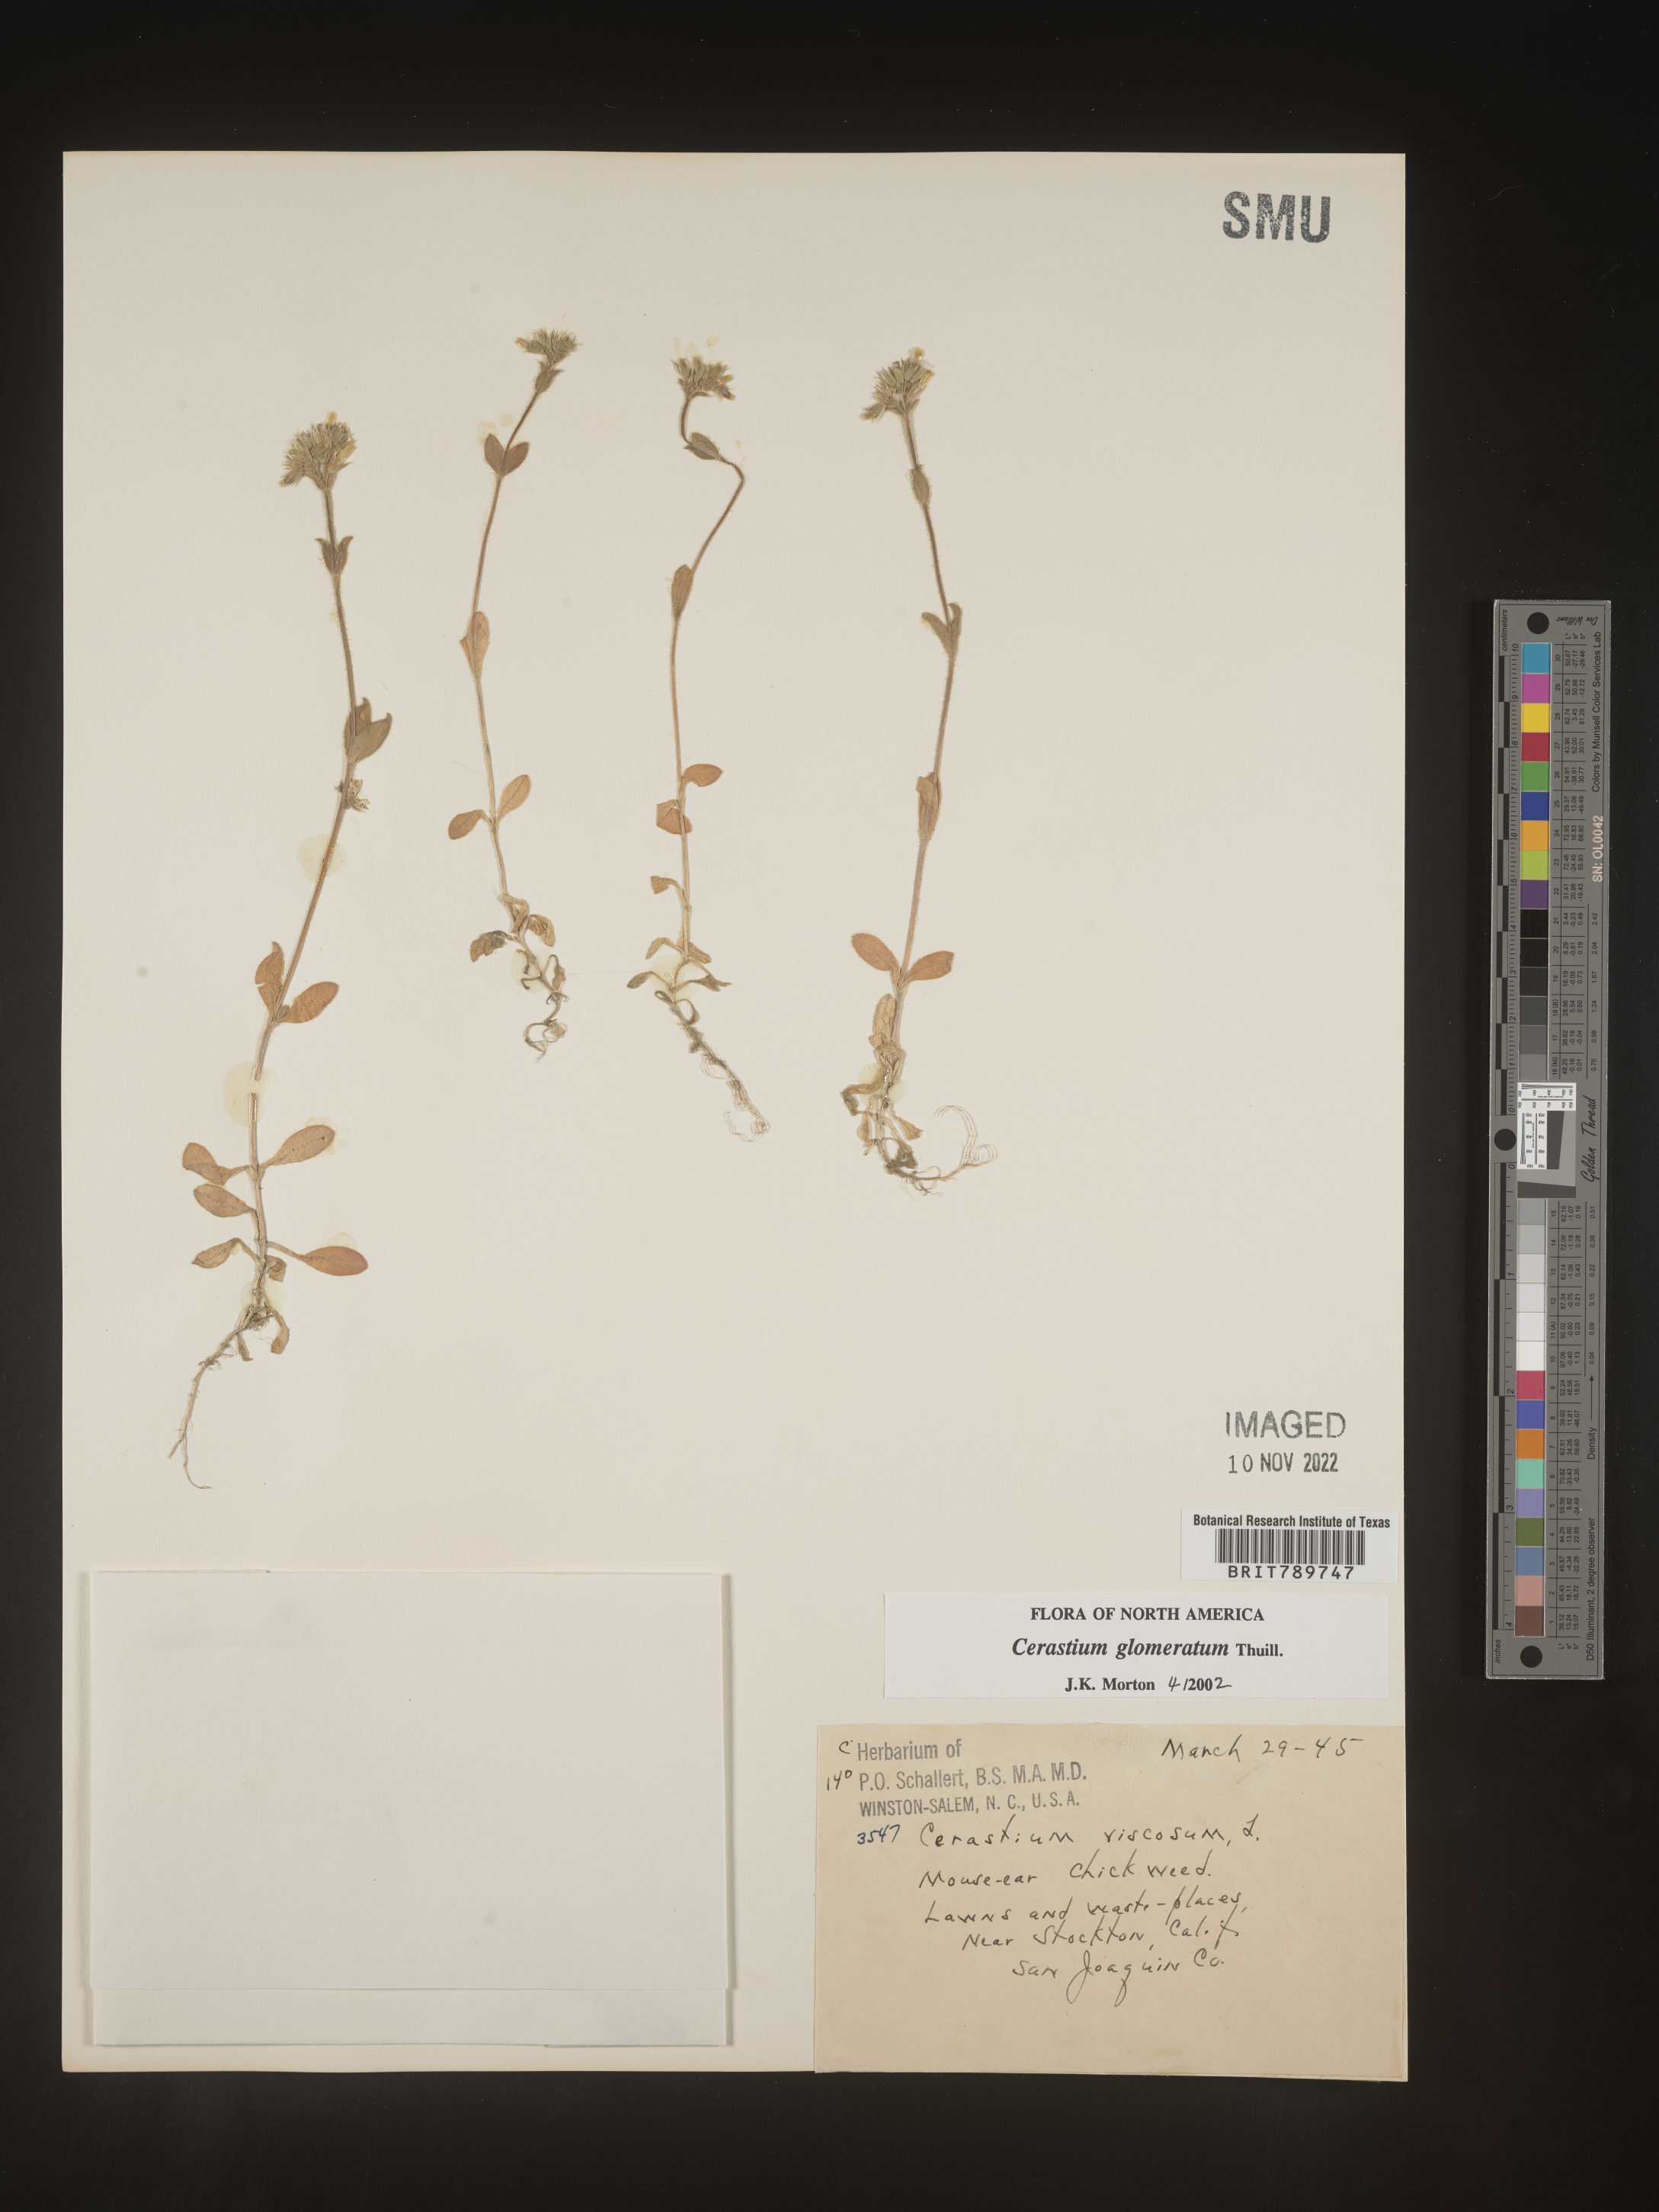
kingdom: Plantae
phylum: Tracheophyta
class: Magnoliopsida
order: Caryophyllales
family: Caryophyllaceae
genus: Cerastium
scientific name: Cerastium glomeratum
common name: Sticky chickweed
